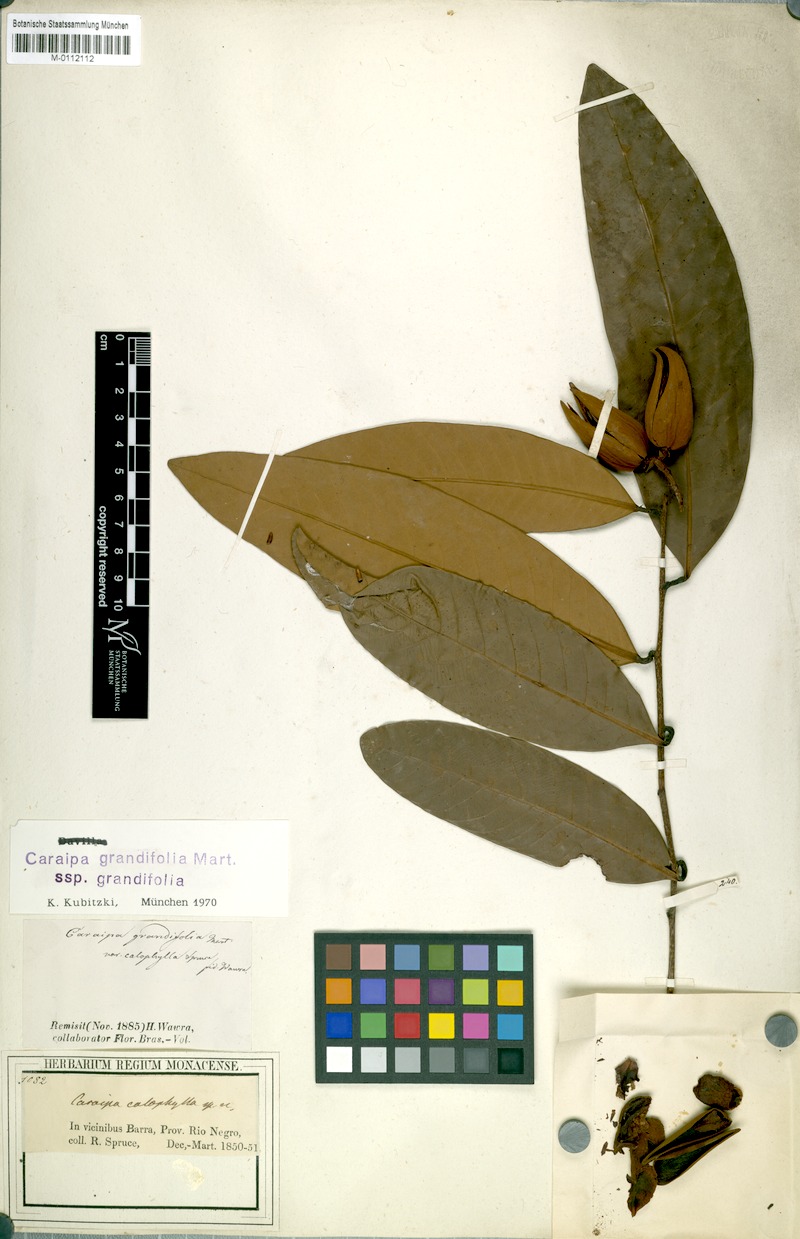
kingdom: Plantae
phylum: Tracheophyta
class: Magnoliopsida
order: Malpighiales
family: Calophyllaceae
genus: Caraipa
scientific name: Caraipa grandifolia
